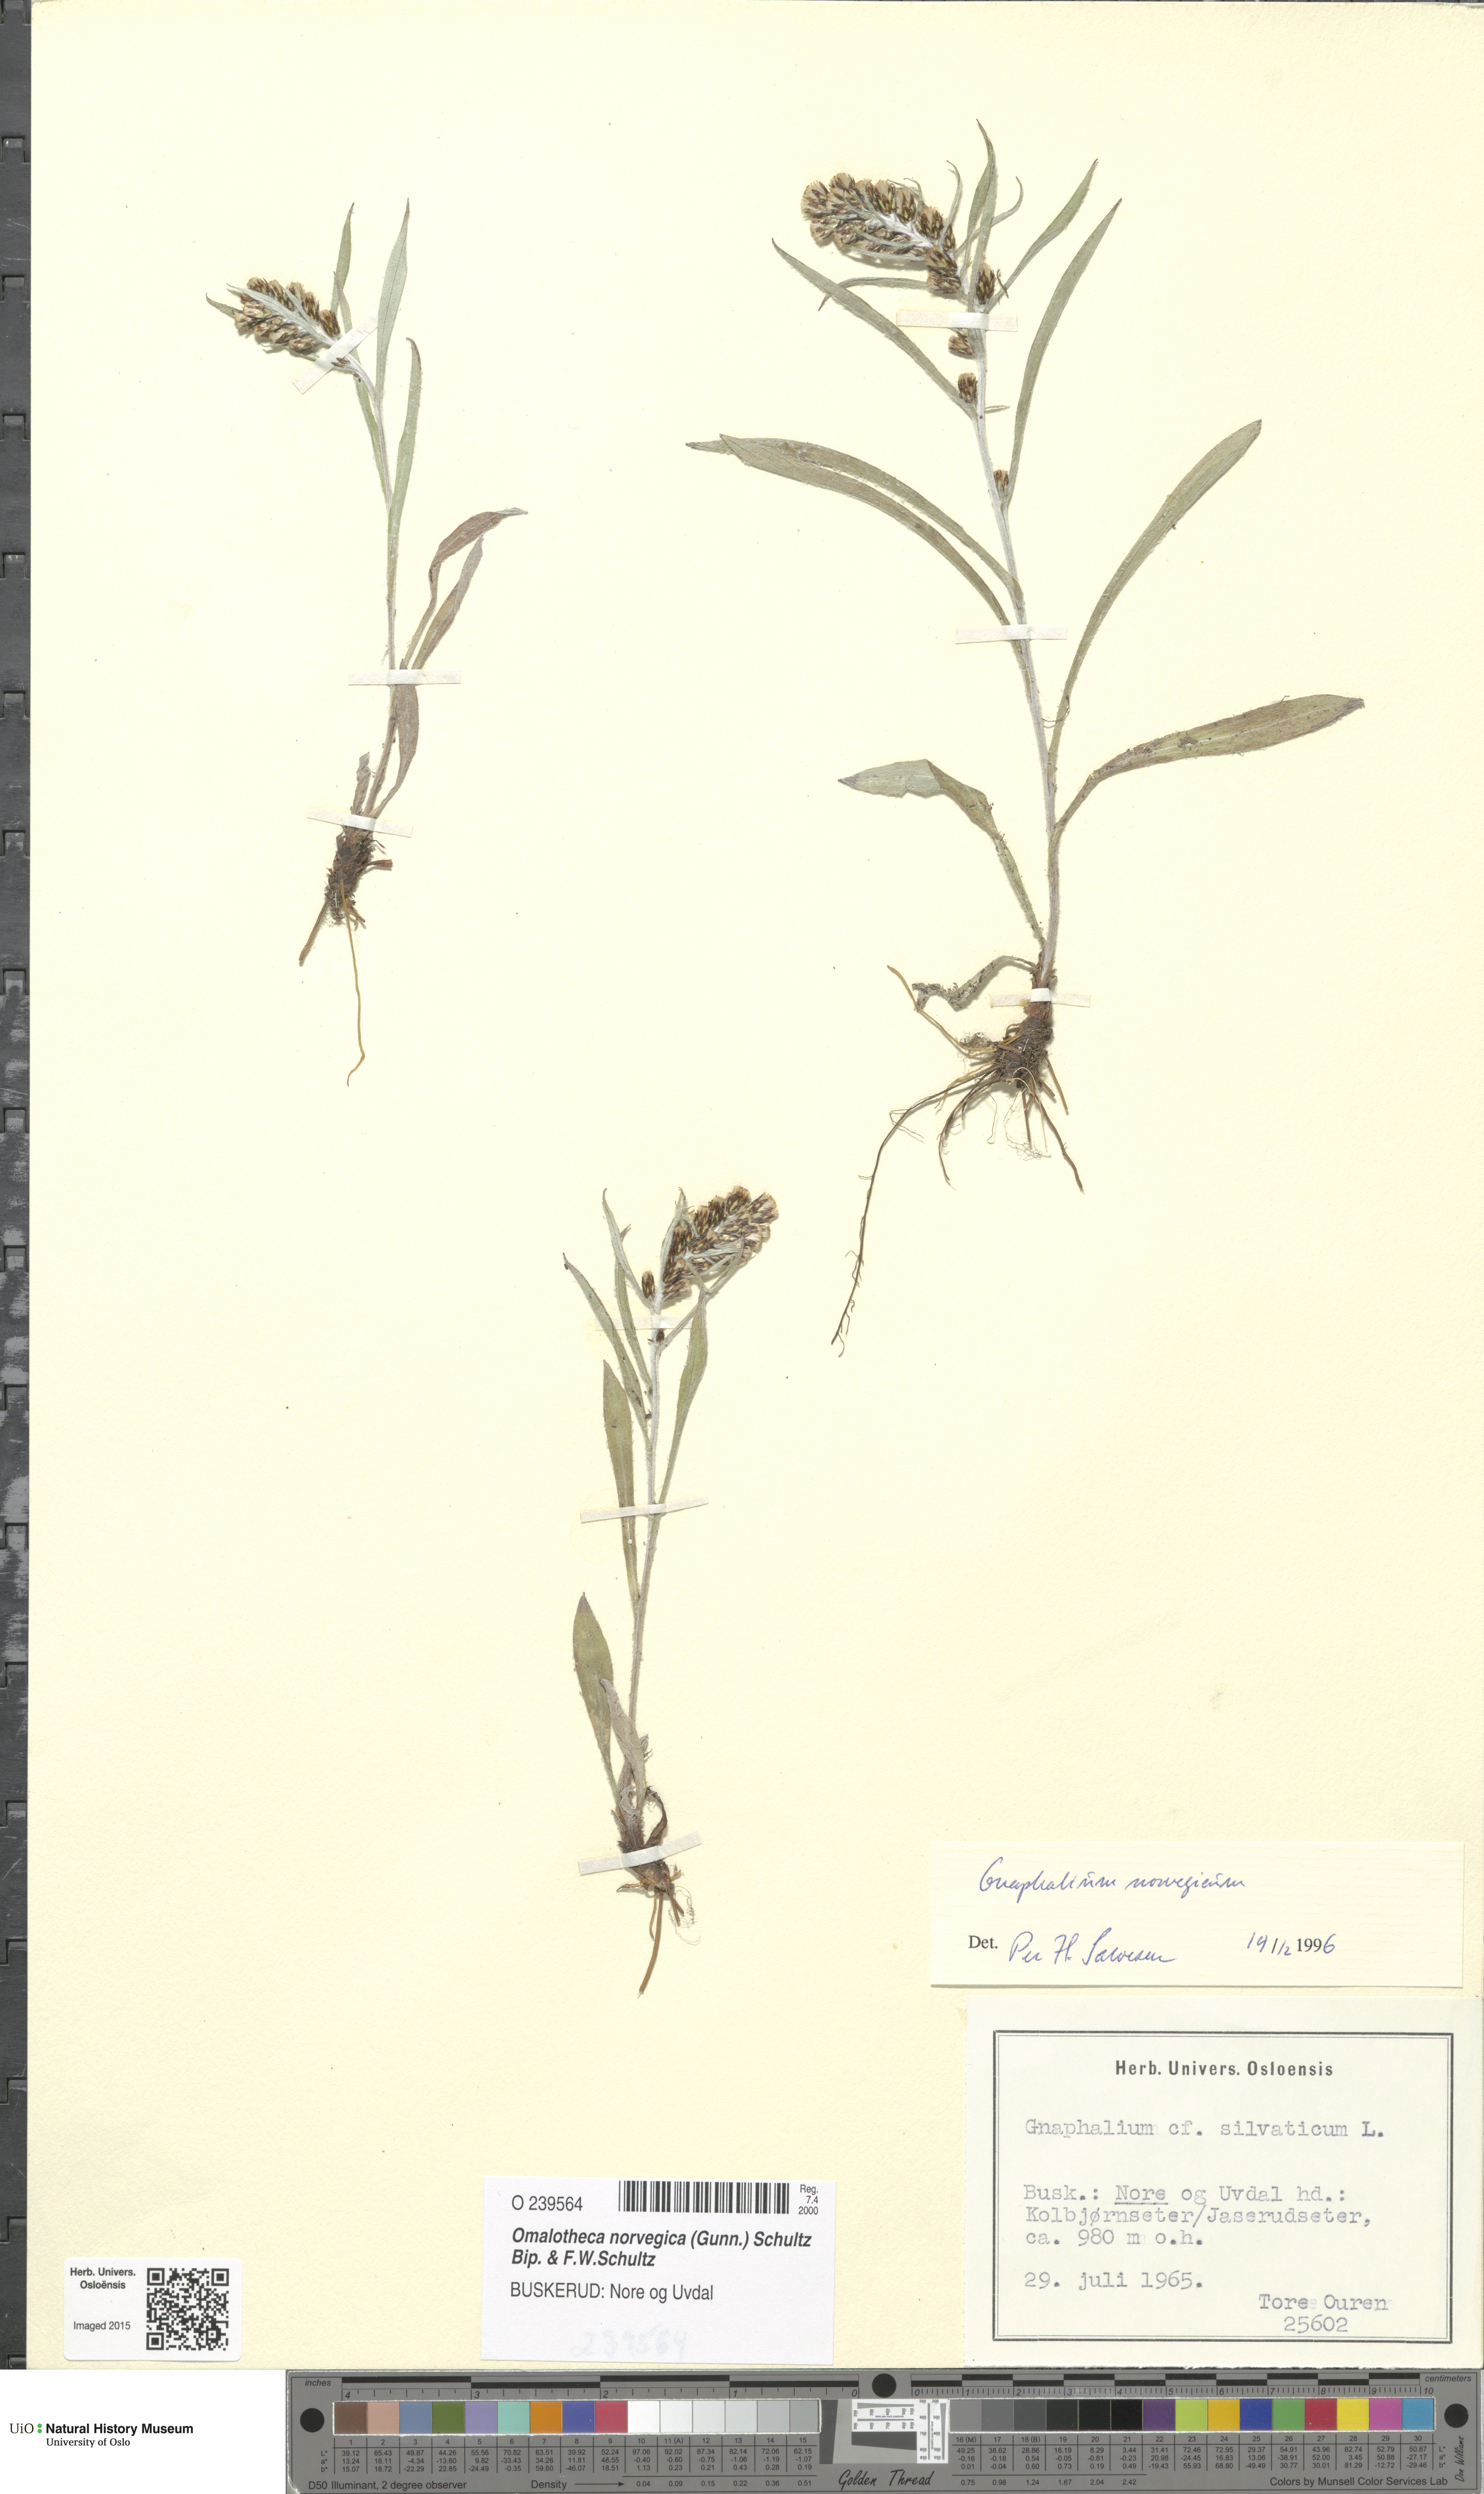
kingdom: Plantae
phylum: Tracheophyta
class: Magnoliopsida
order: Asterales
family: Asteraceae
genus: Omalotheca
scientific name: Omalotheca norvegica
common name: Norwegian arctic-cudweed
